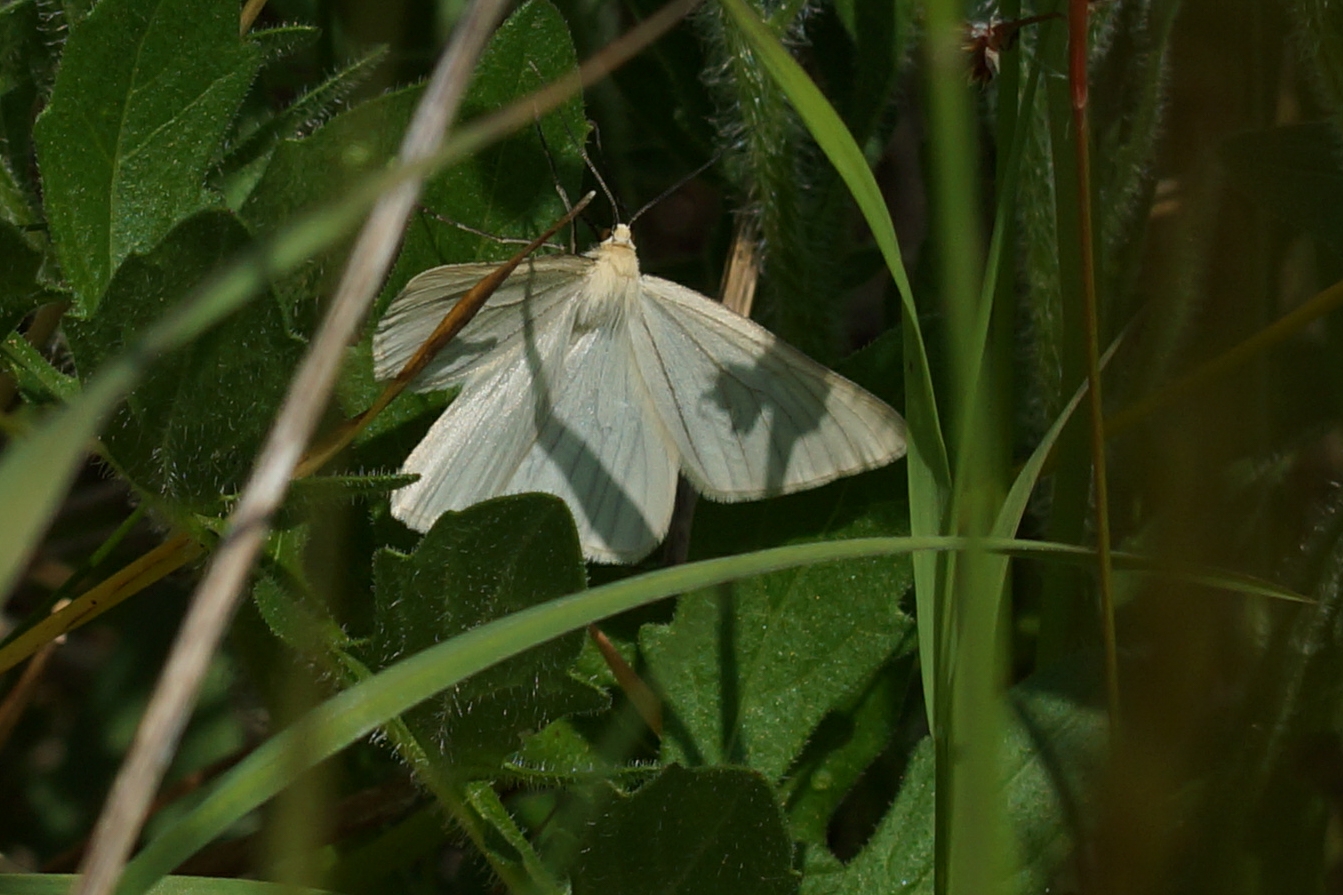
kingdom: Animalia
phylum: Arthropoda
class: Insecta
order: Lepidoptera
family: Geometridae
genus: Siona
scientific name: Siona lineata
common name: Hvidvingemåler
